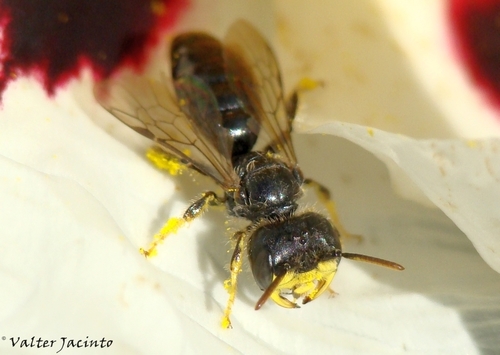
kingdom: Animalia
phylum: Arthropoda
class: Insecta
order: Hymenoptera
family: Andrenidae
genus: Flavipanurgus
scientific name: Flavipanurgus flavus
